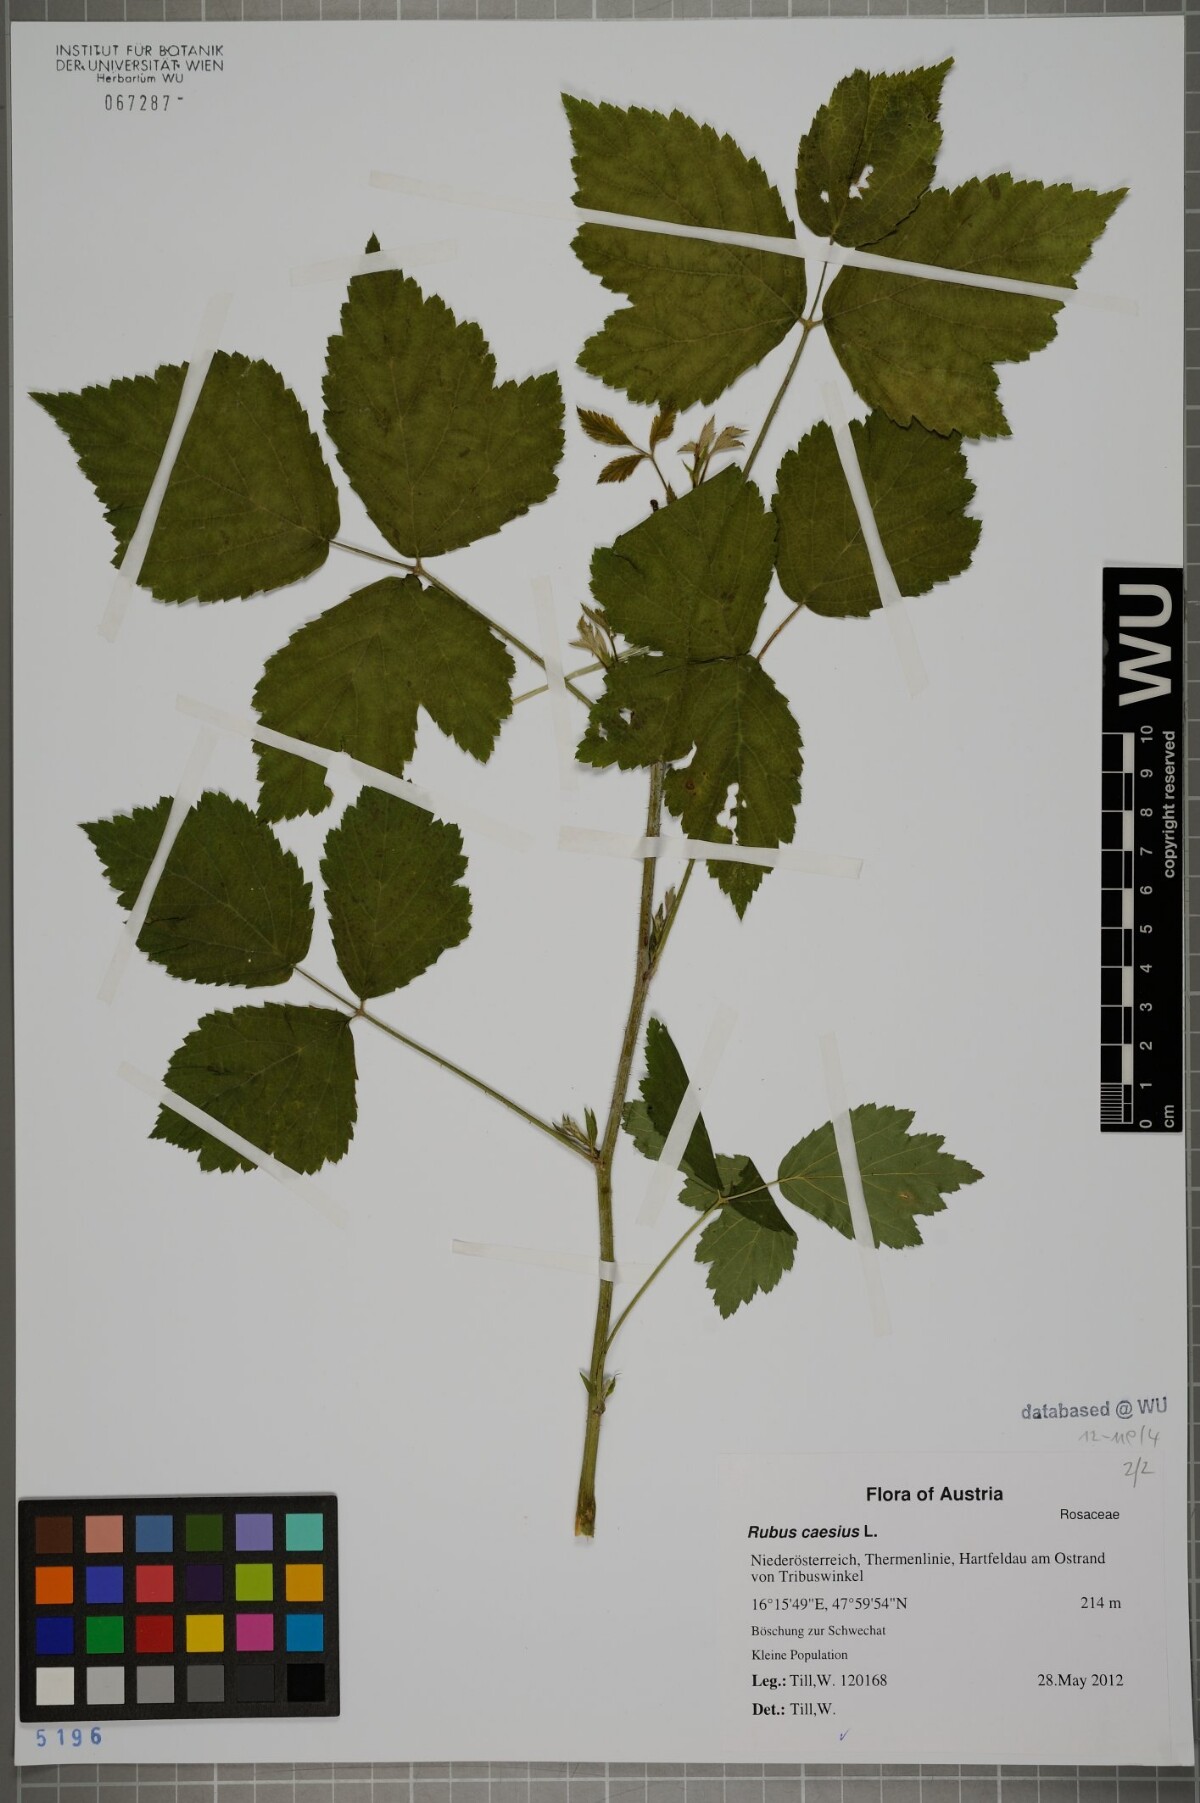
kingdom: Plantae
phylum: Tracheophyta
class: Magnoliopsida
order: Rosales
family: Rosaceae
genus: Rubus
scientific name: Rubus caesius
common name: Dewberry
